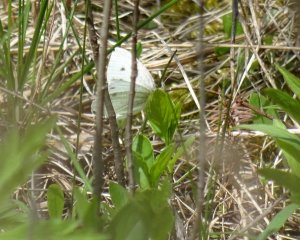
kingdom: Animalia
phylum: Arthropoda
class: Insecta
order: Lepidoptera
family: Pieridae
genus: Pieris
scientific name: Pieris rapae
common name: Cabbage White
